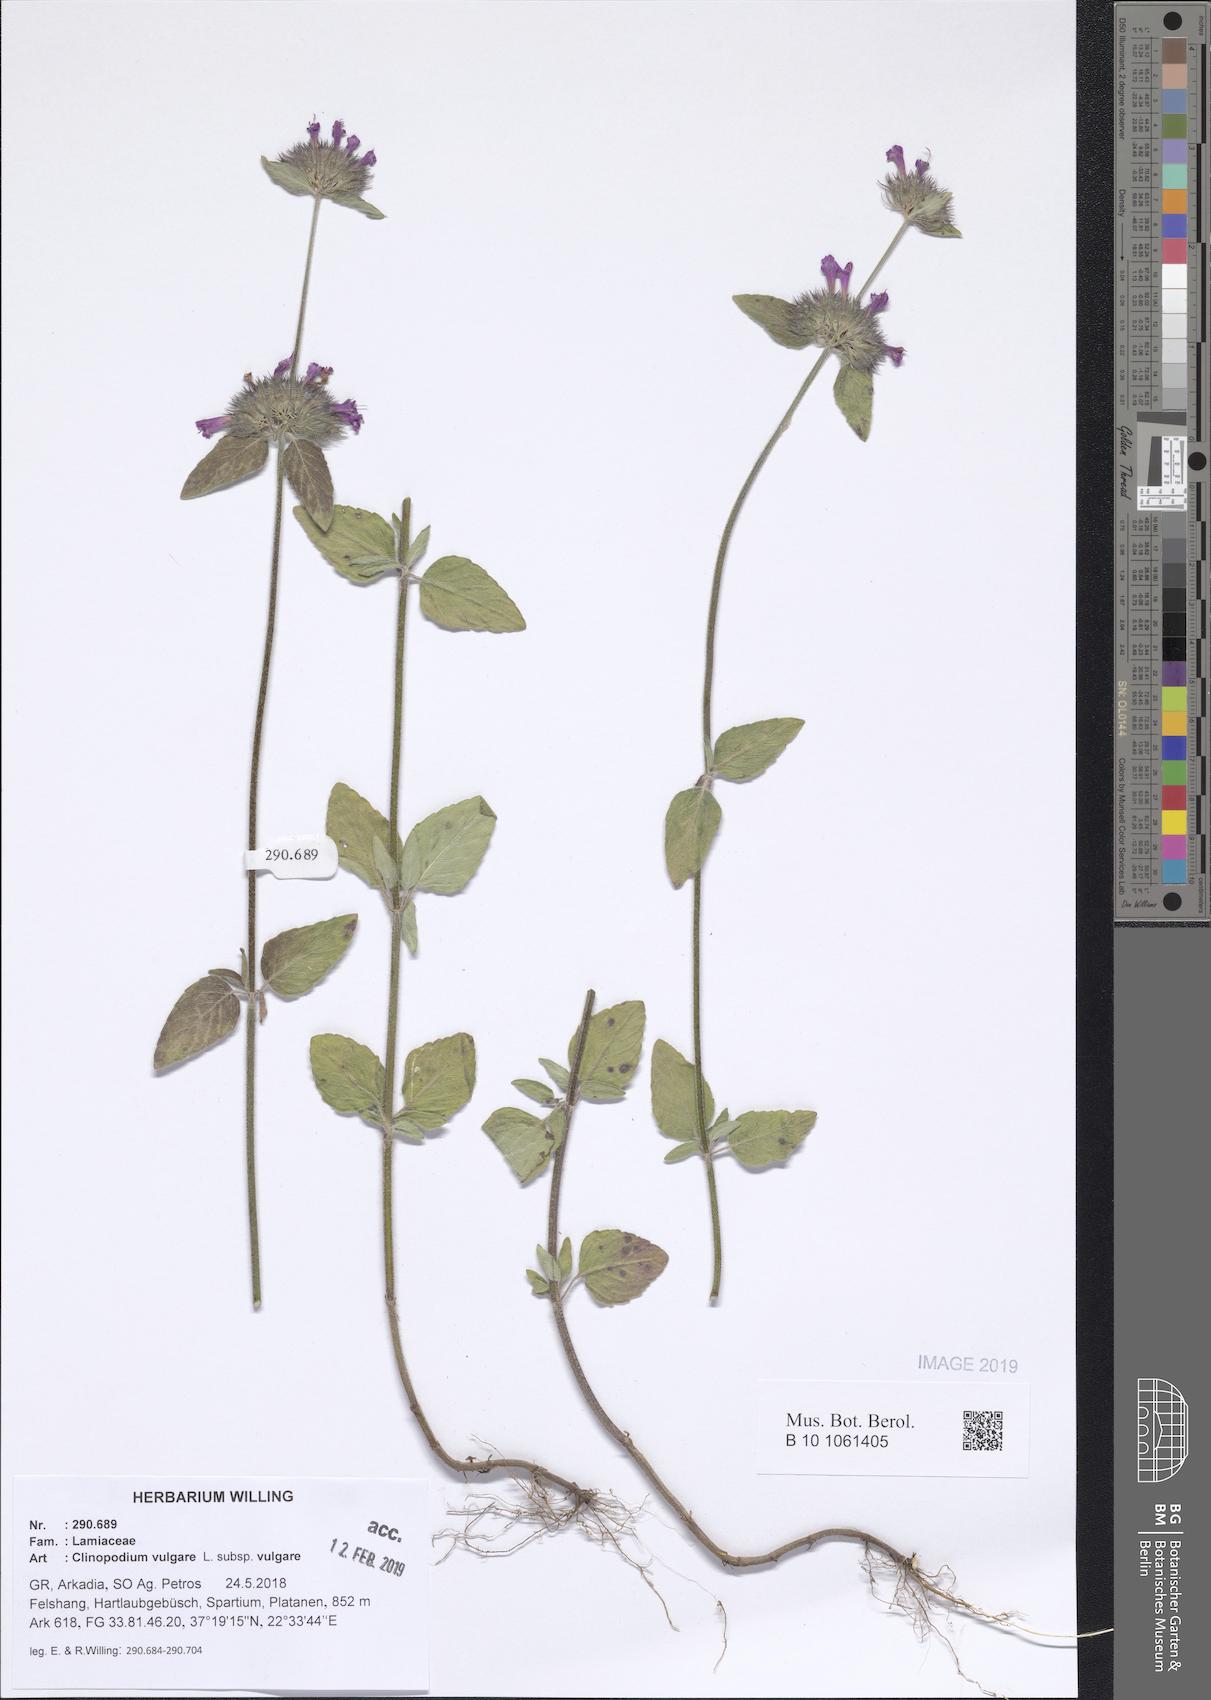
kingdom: Plantae
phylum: Tracheophyta
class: Magnoliopsida
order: Lamiales
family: Lamiaceae
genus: Clinopodium
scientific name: Clinopodium vulgare
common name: Wild basil
